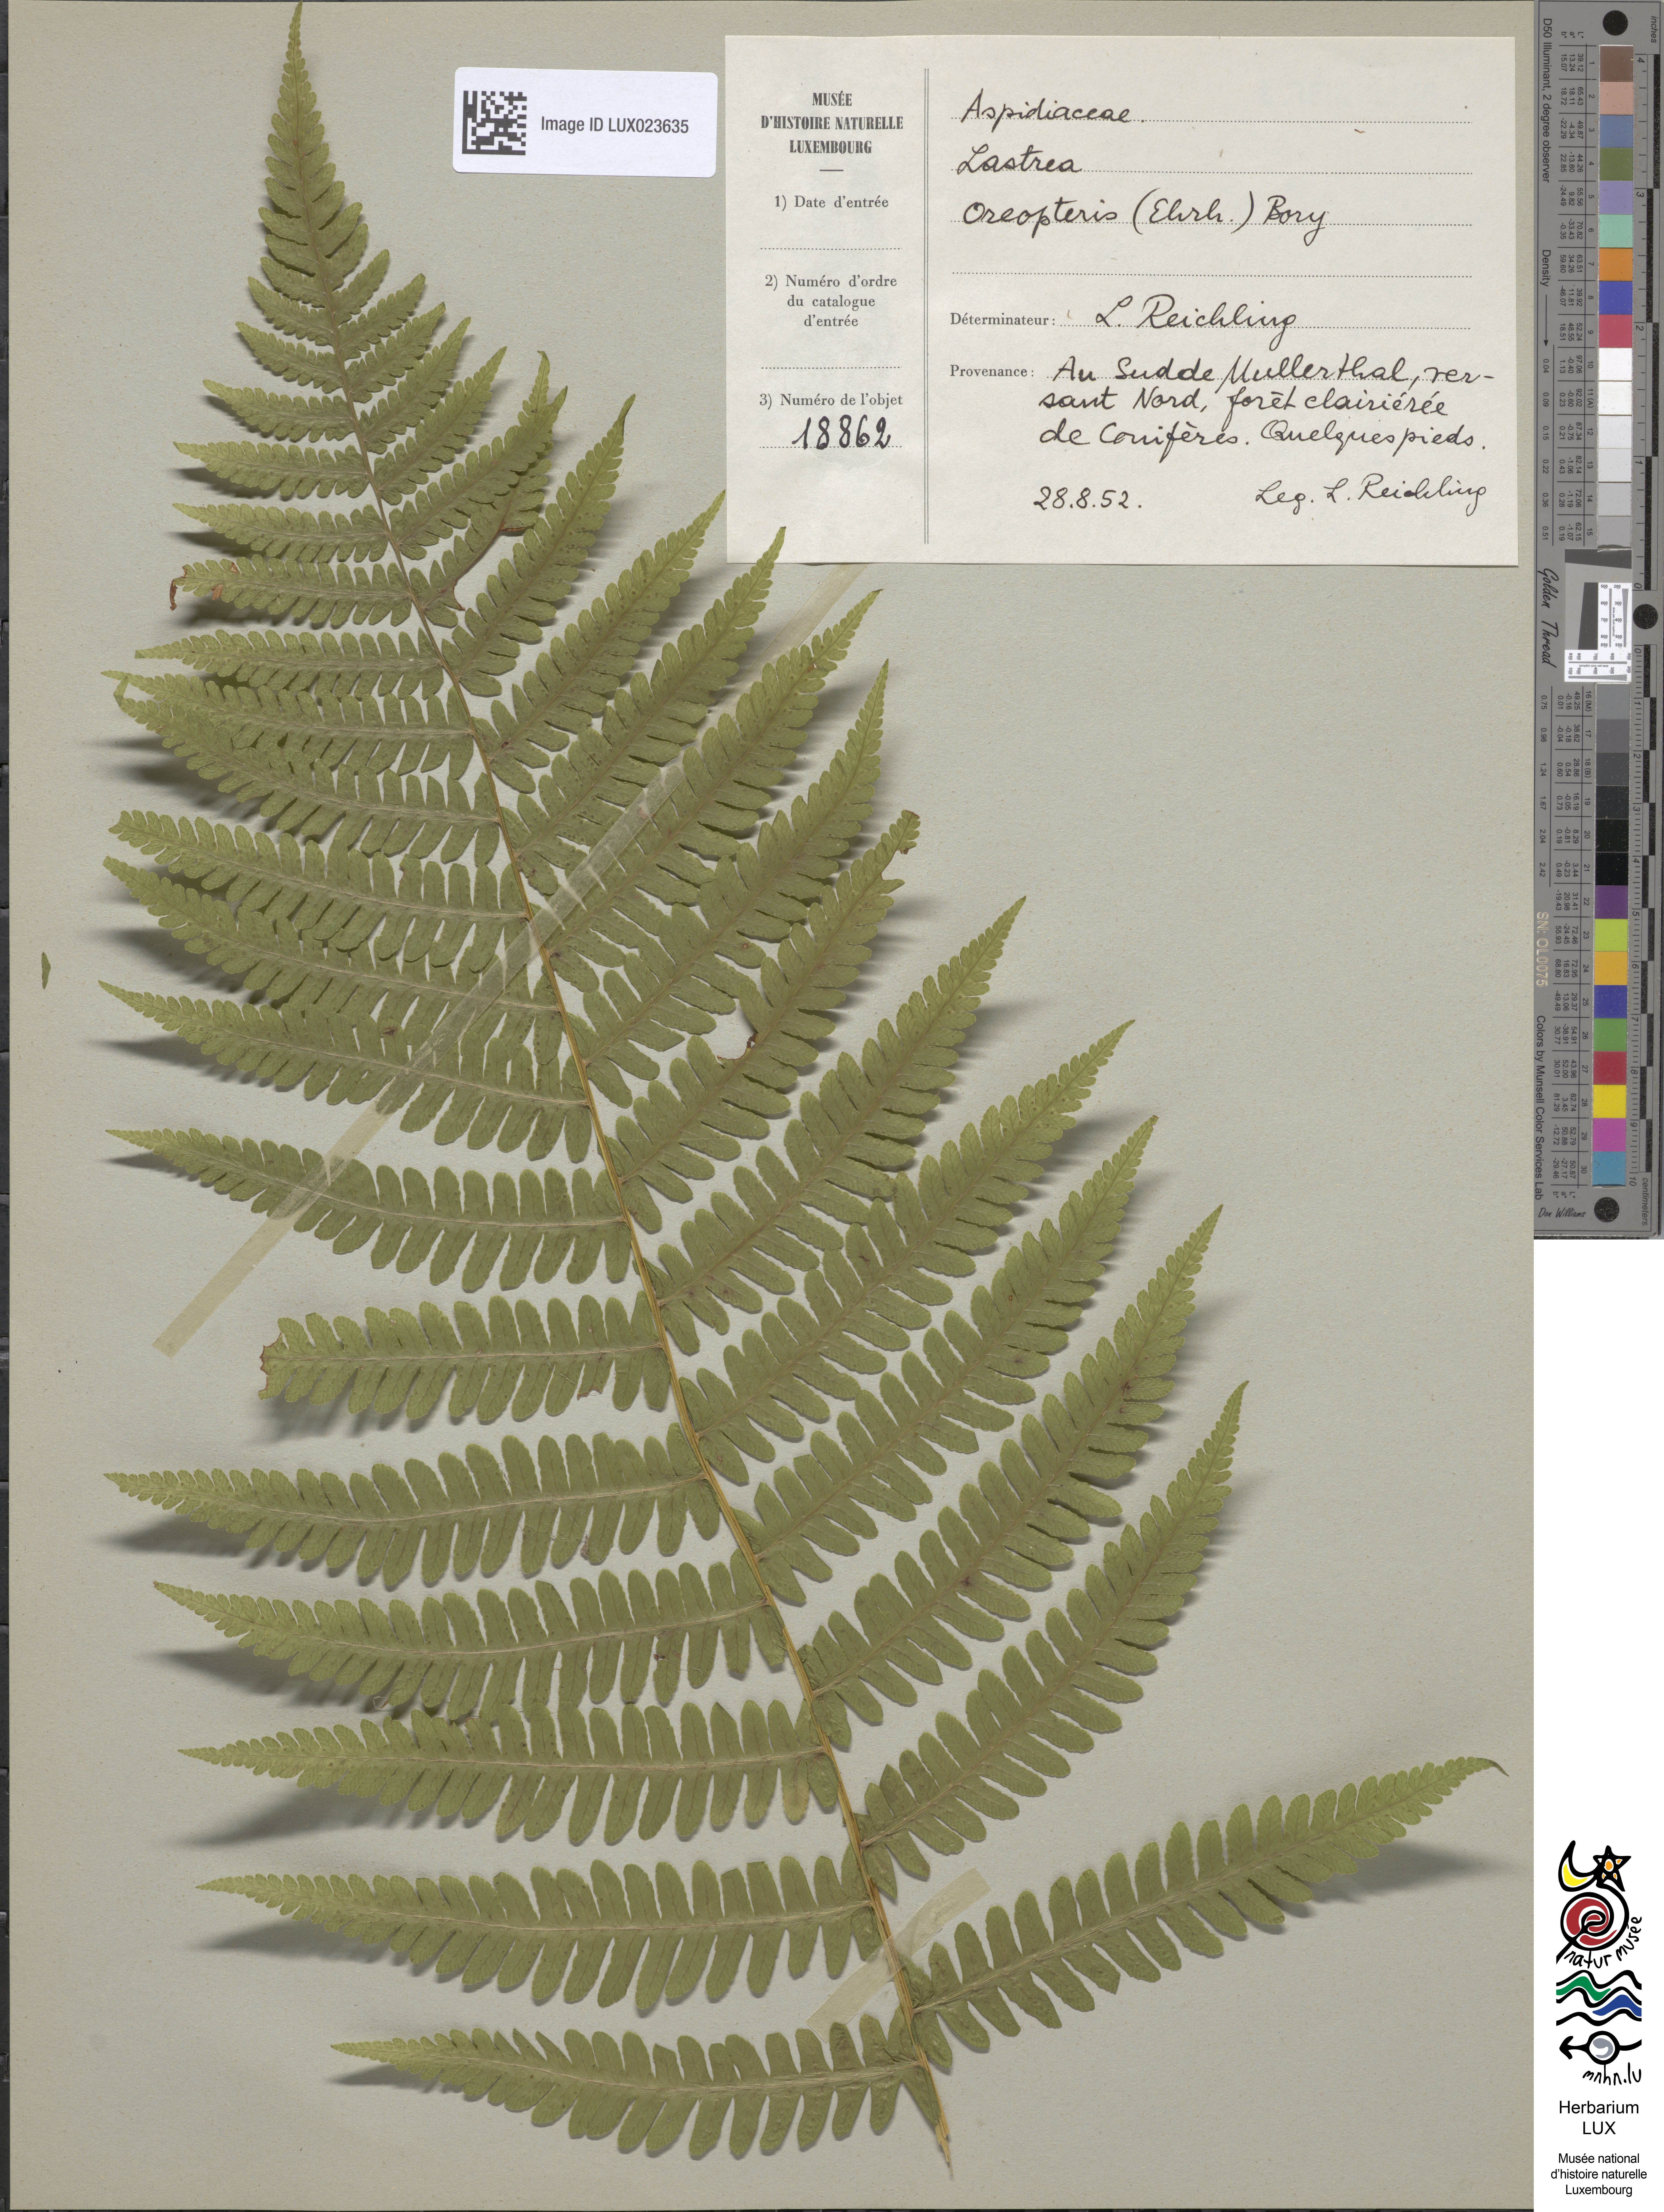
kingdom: Plantae
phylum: Tracheophyta
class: Polypodiopsida
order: Polypodiales
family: Thelypteridaceae
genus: Oreopteris
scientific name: Oreopteris limbosperma
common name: Lemon-scented fern
